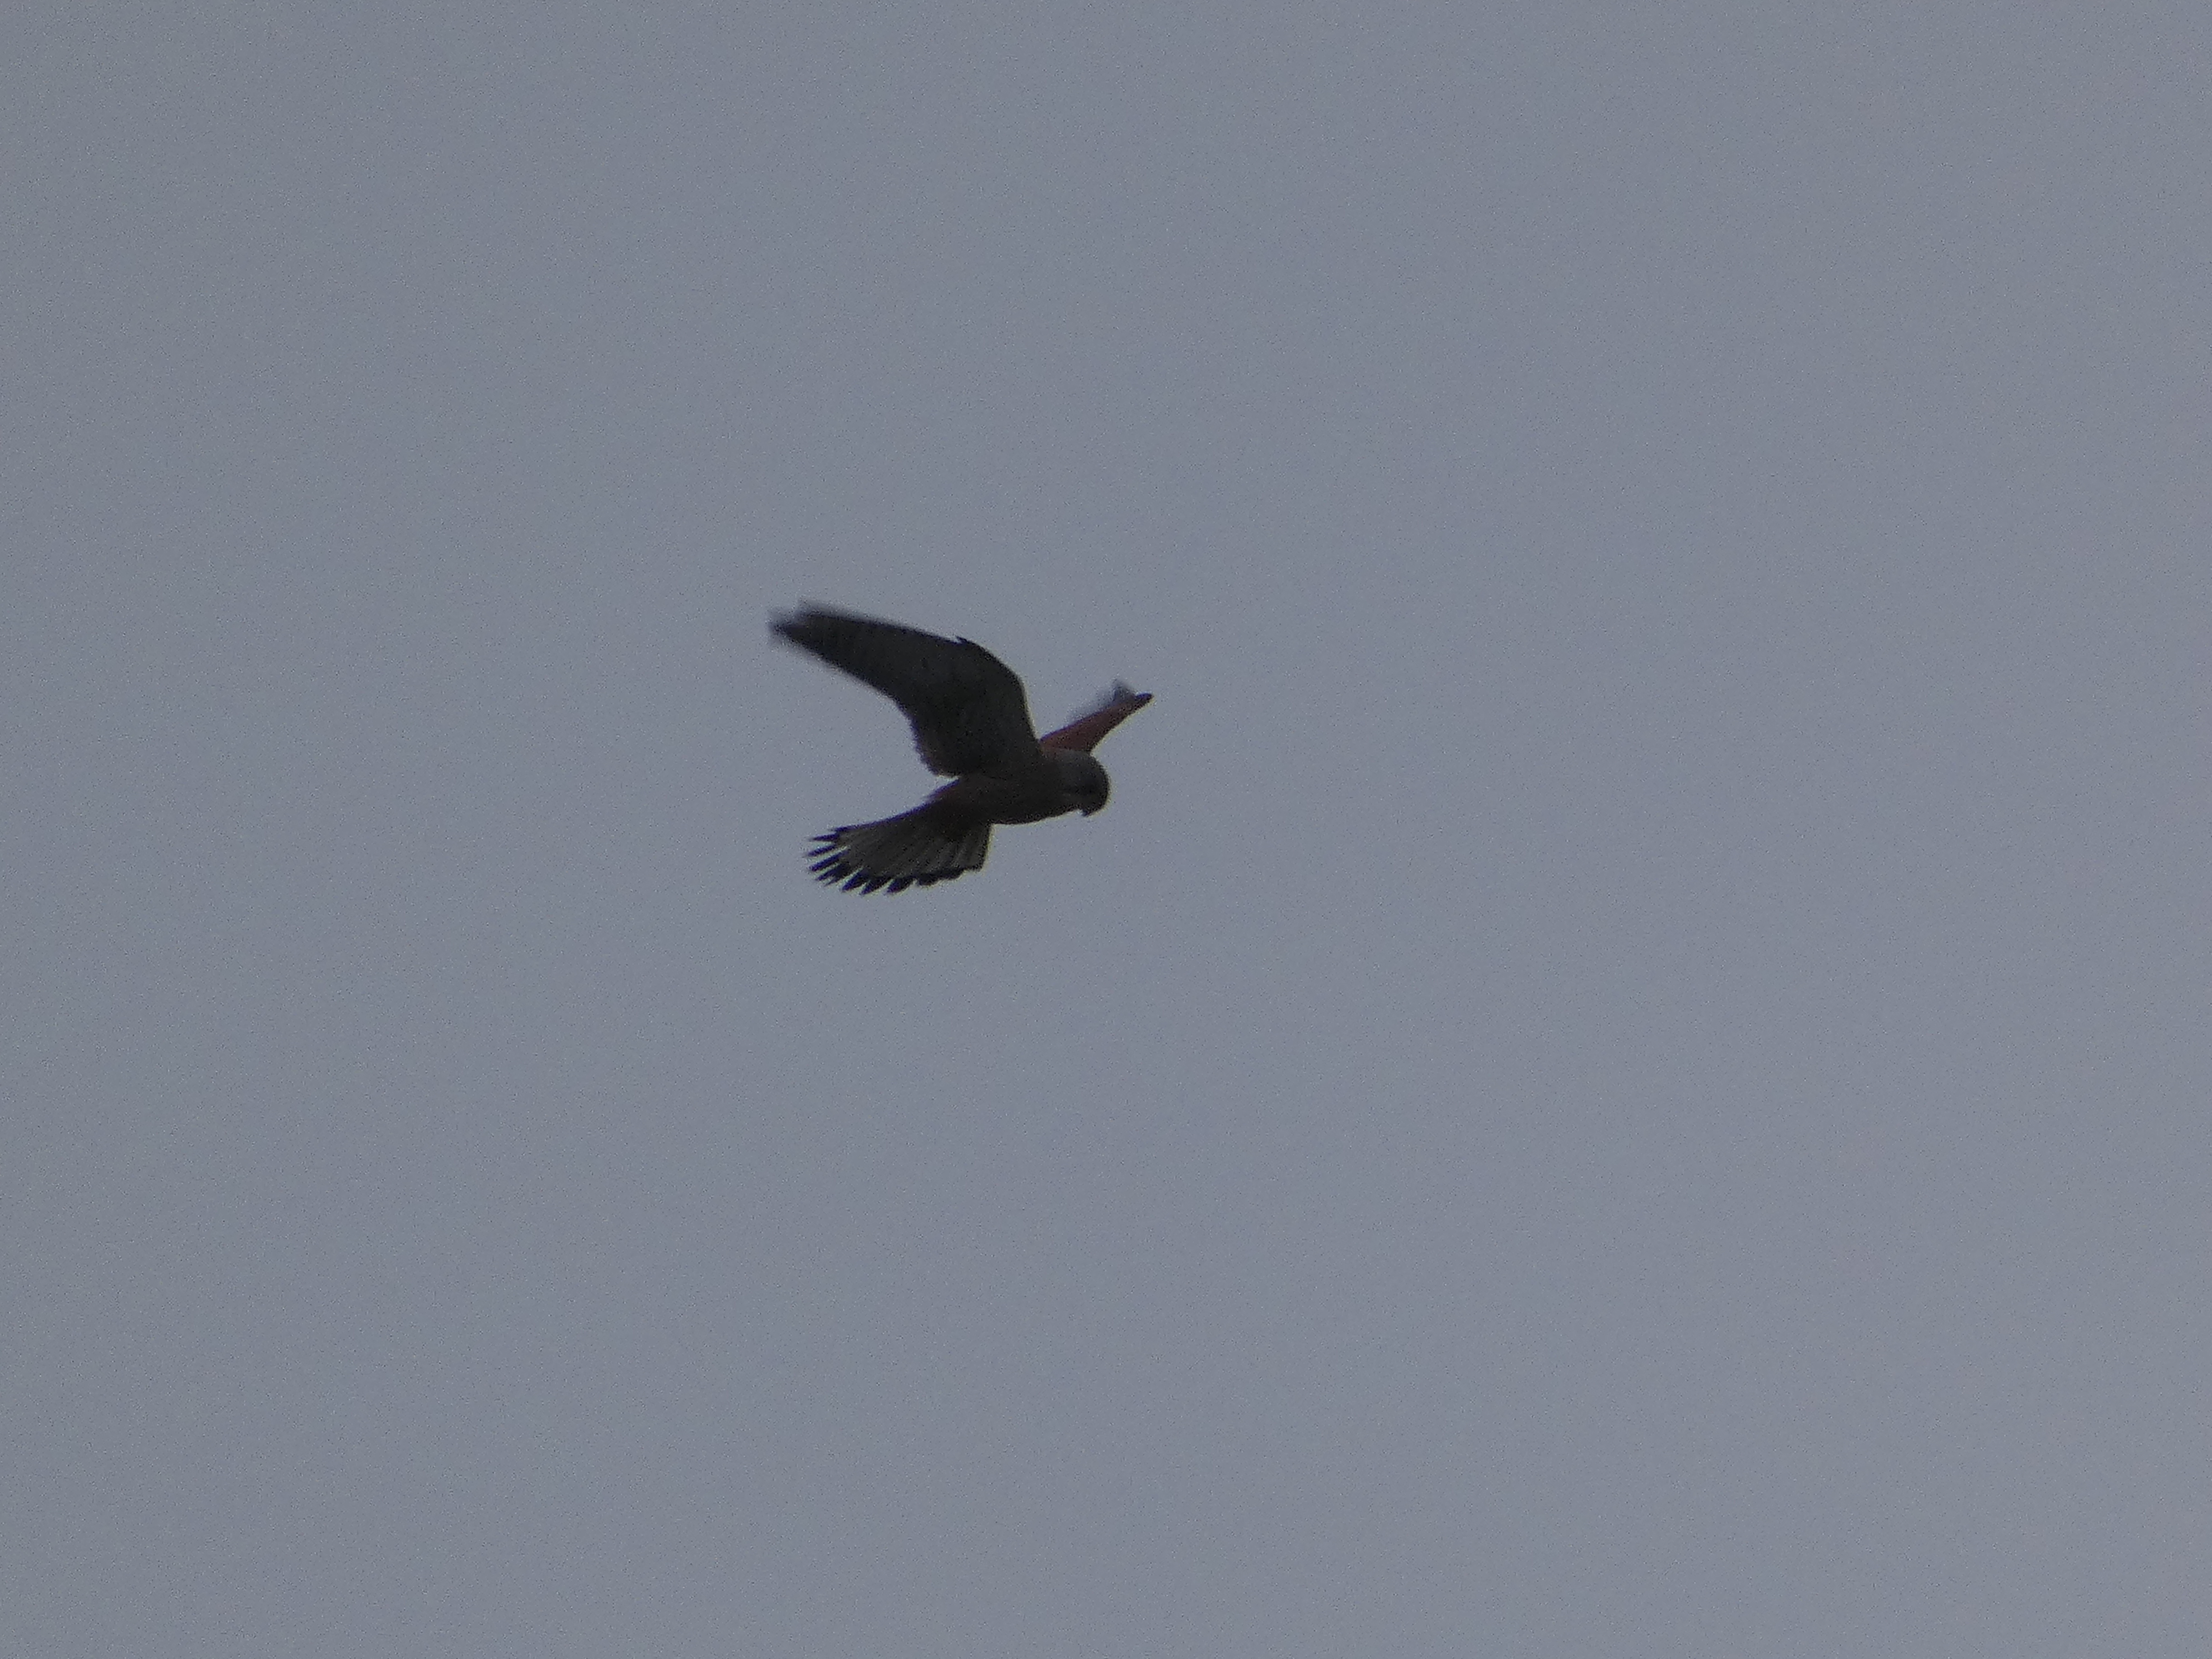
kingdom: Animalia
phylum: Chordata
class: Aves
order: Falconiformes
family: Falconidae
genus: Falco
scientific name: Falco tinnunculus
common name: Tårnfalk
